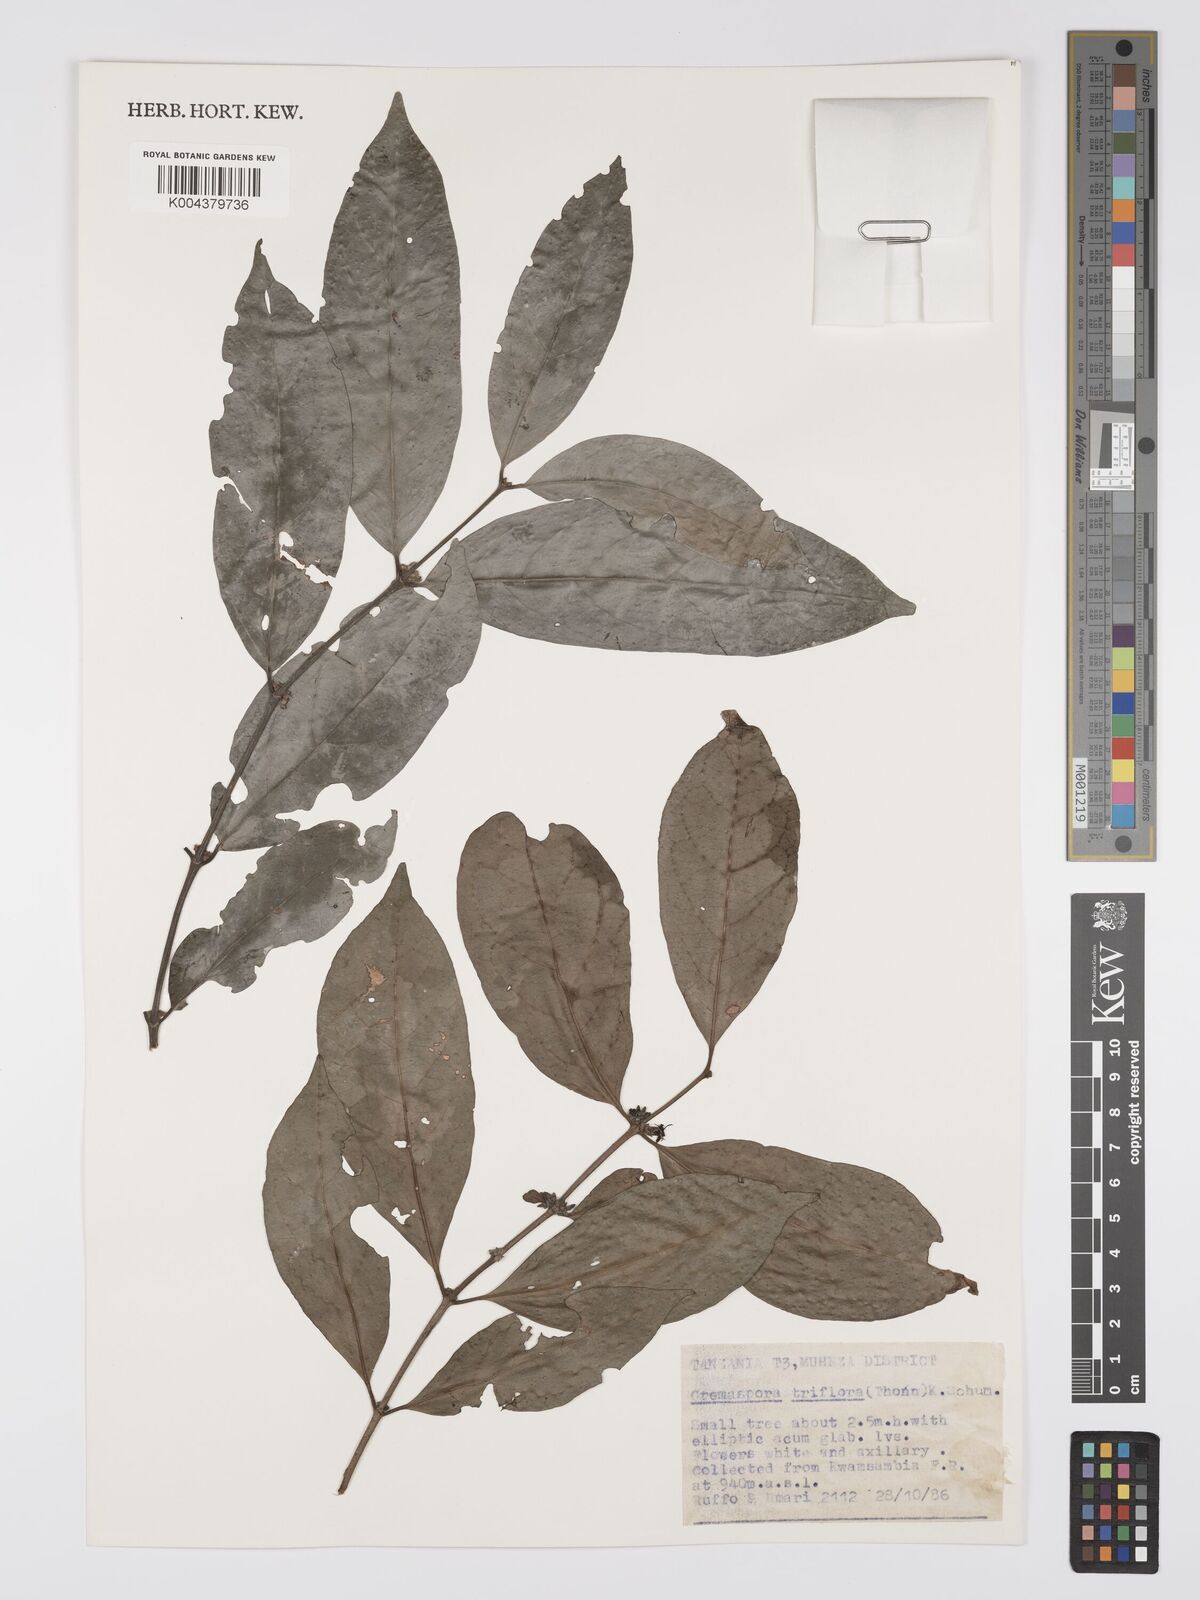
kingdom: Plantae
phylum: Tracheophyta
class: Magnoliopsida
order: Gentianales
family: Rubiaceae
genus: Cremaspora
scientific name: Cremaspora triflora
